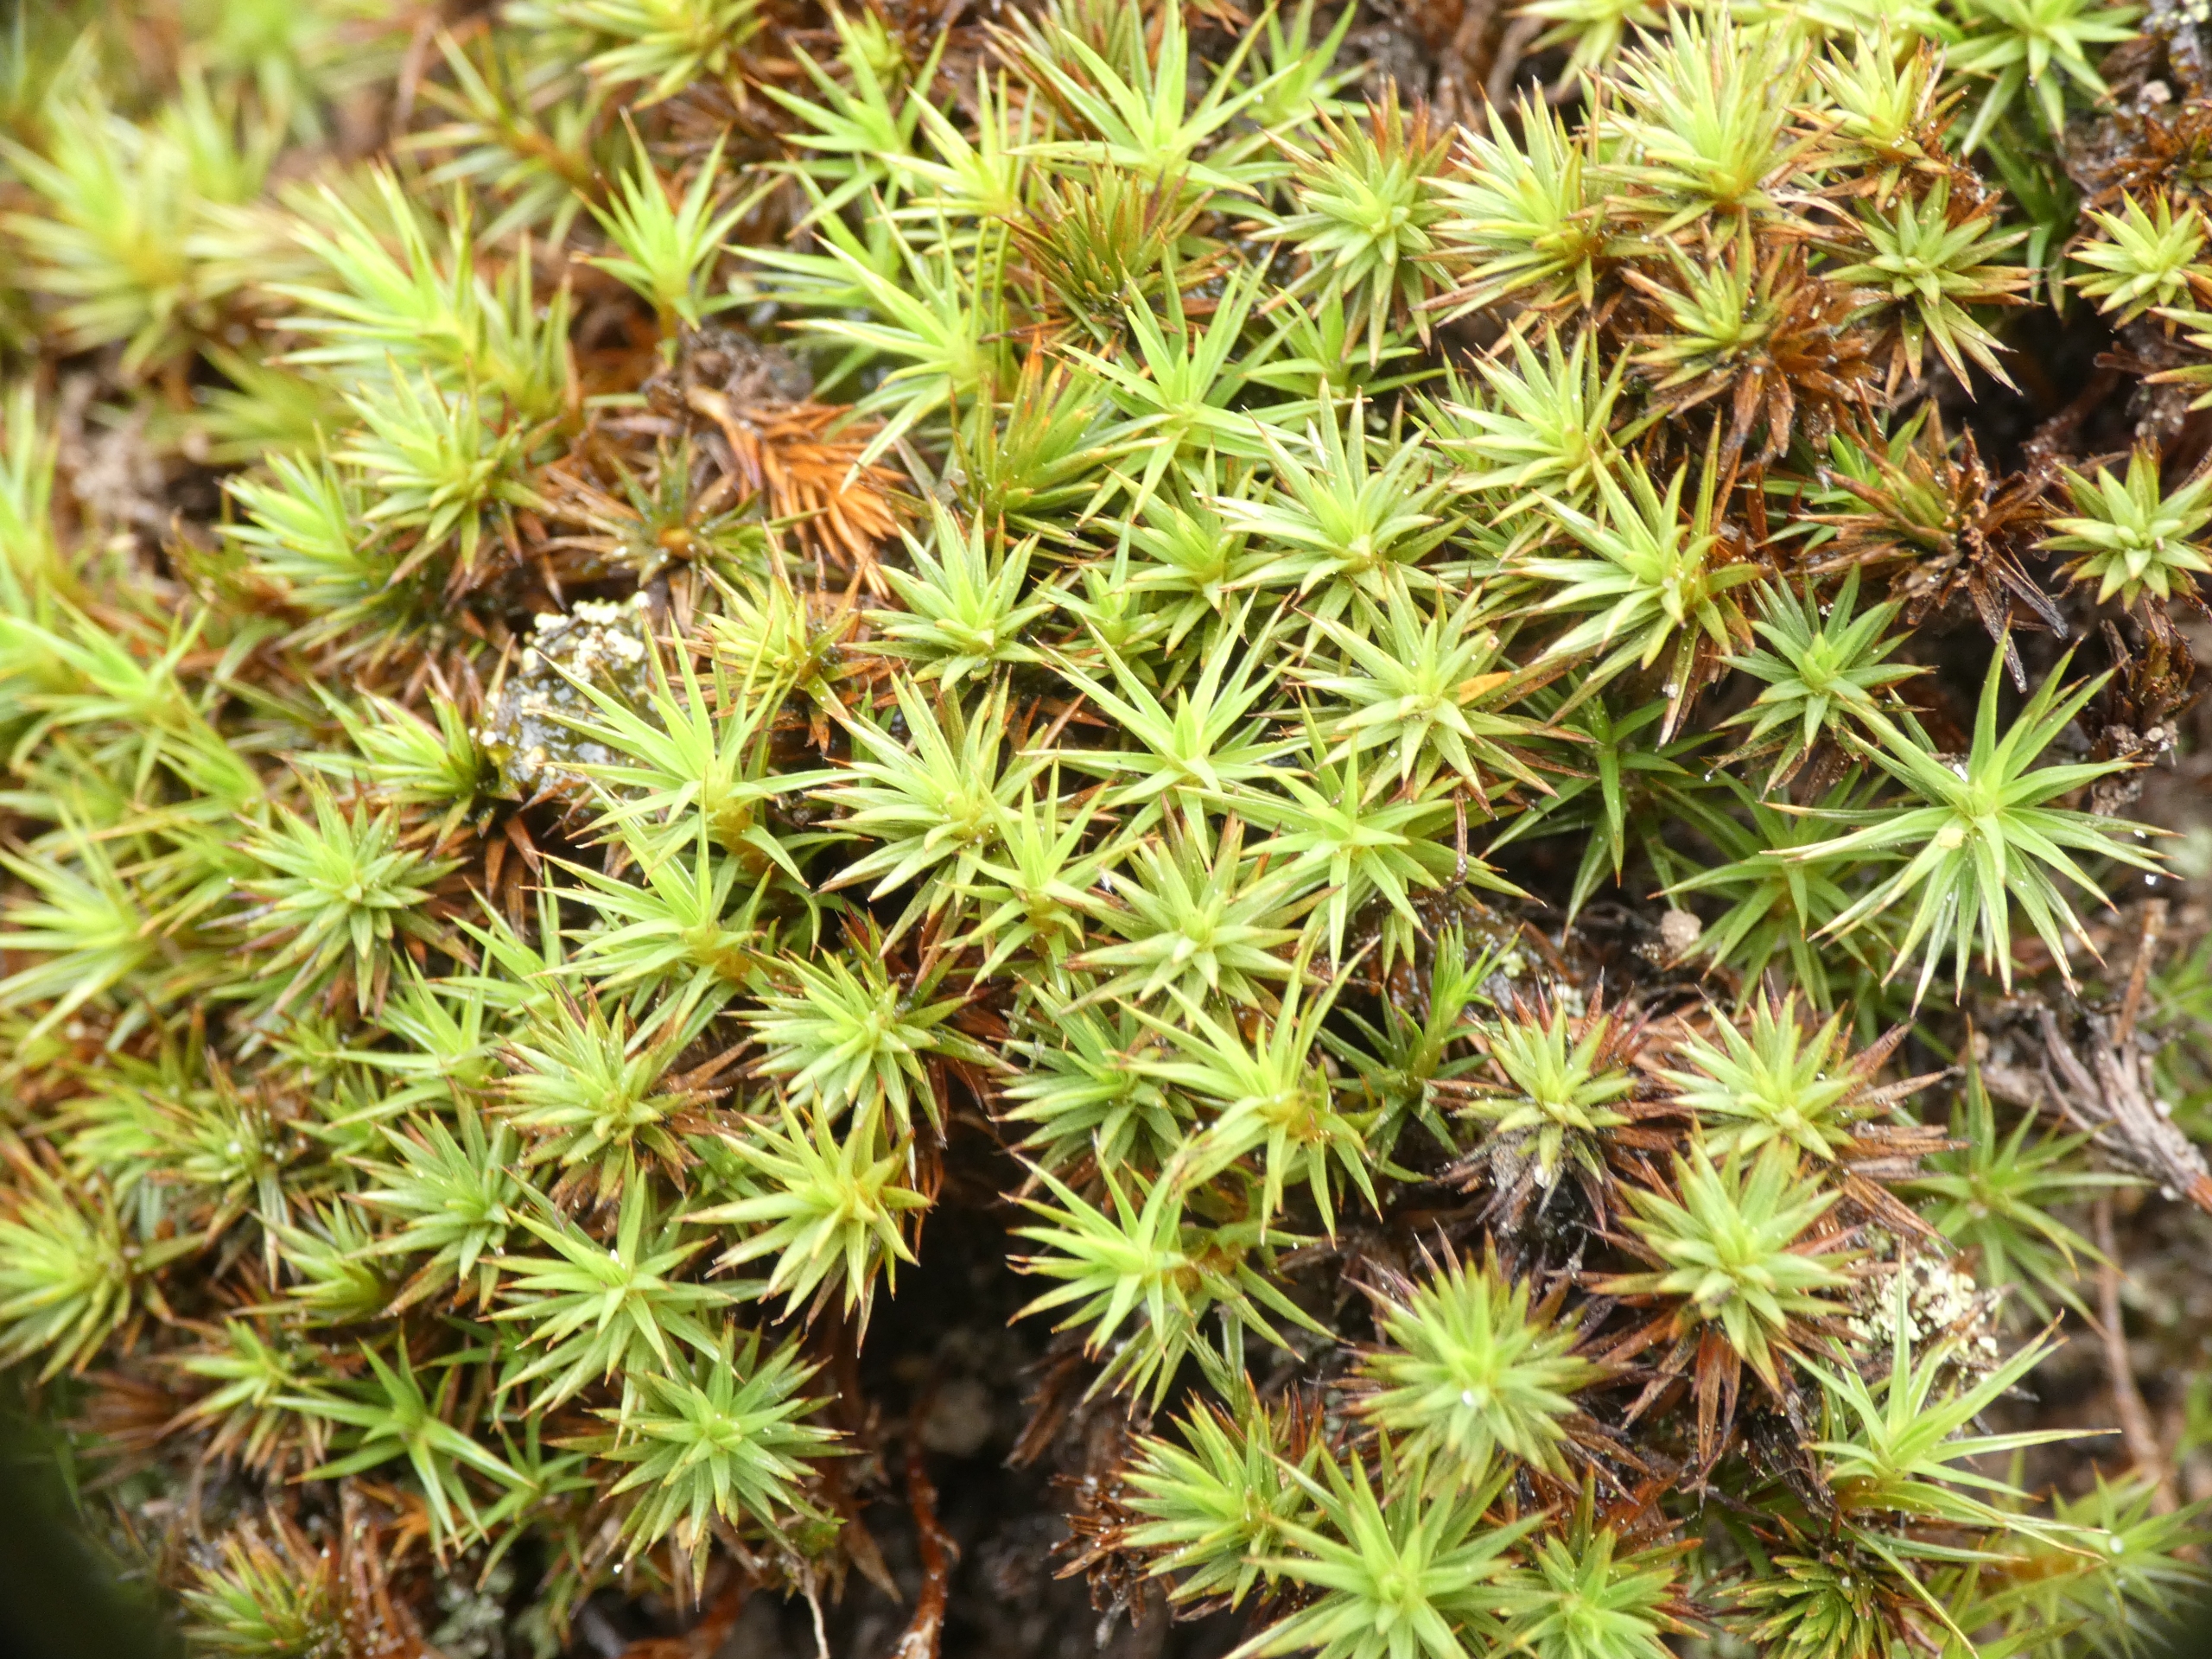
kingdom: Plantae
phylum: Bryophyta
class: Polytrichopsida
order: Polytrichales
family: Polytrichaceae
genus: Polytrichum
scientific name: Polytrichum juniperinum
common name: Ene-jomfruhår
